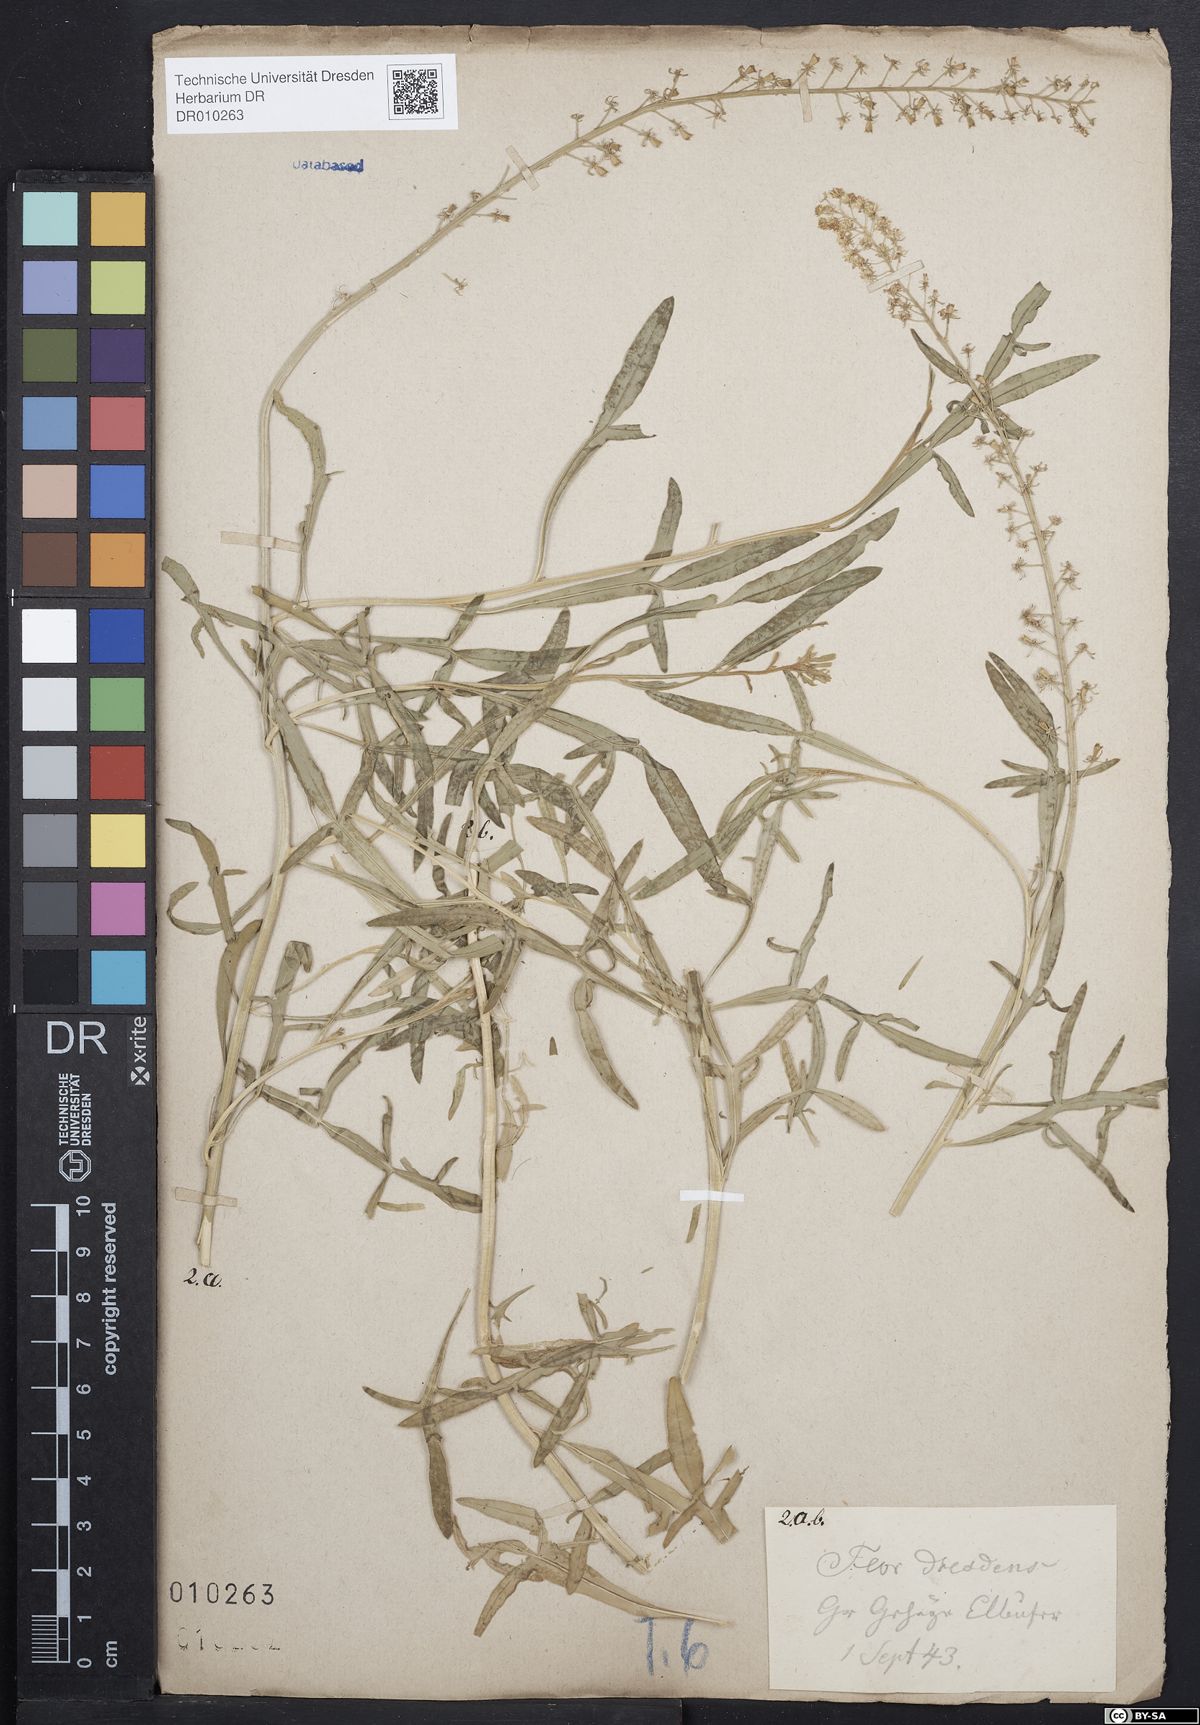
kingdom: Plantae
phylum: Tracheophyta
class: Magnoliopsida
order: Brassicales
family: Resedaceae
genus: Reseda
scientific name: Reseda lutea
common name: Wild mignonette
